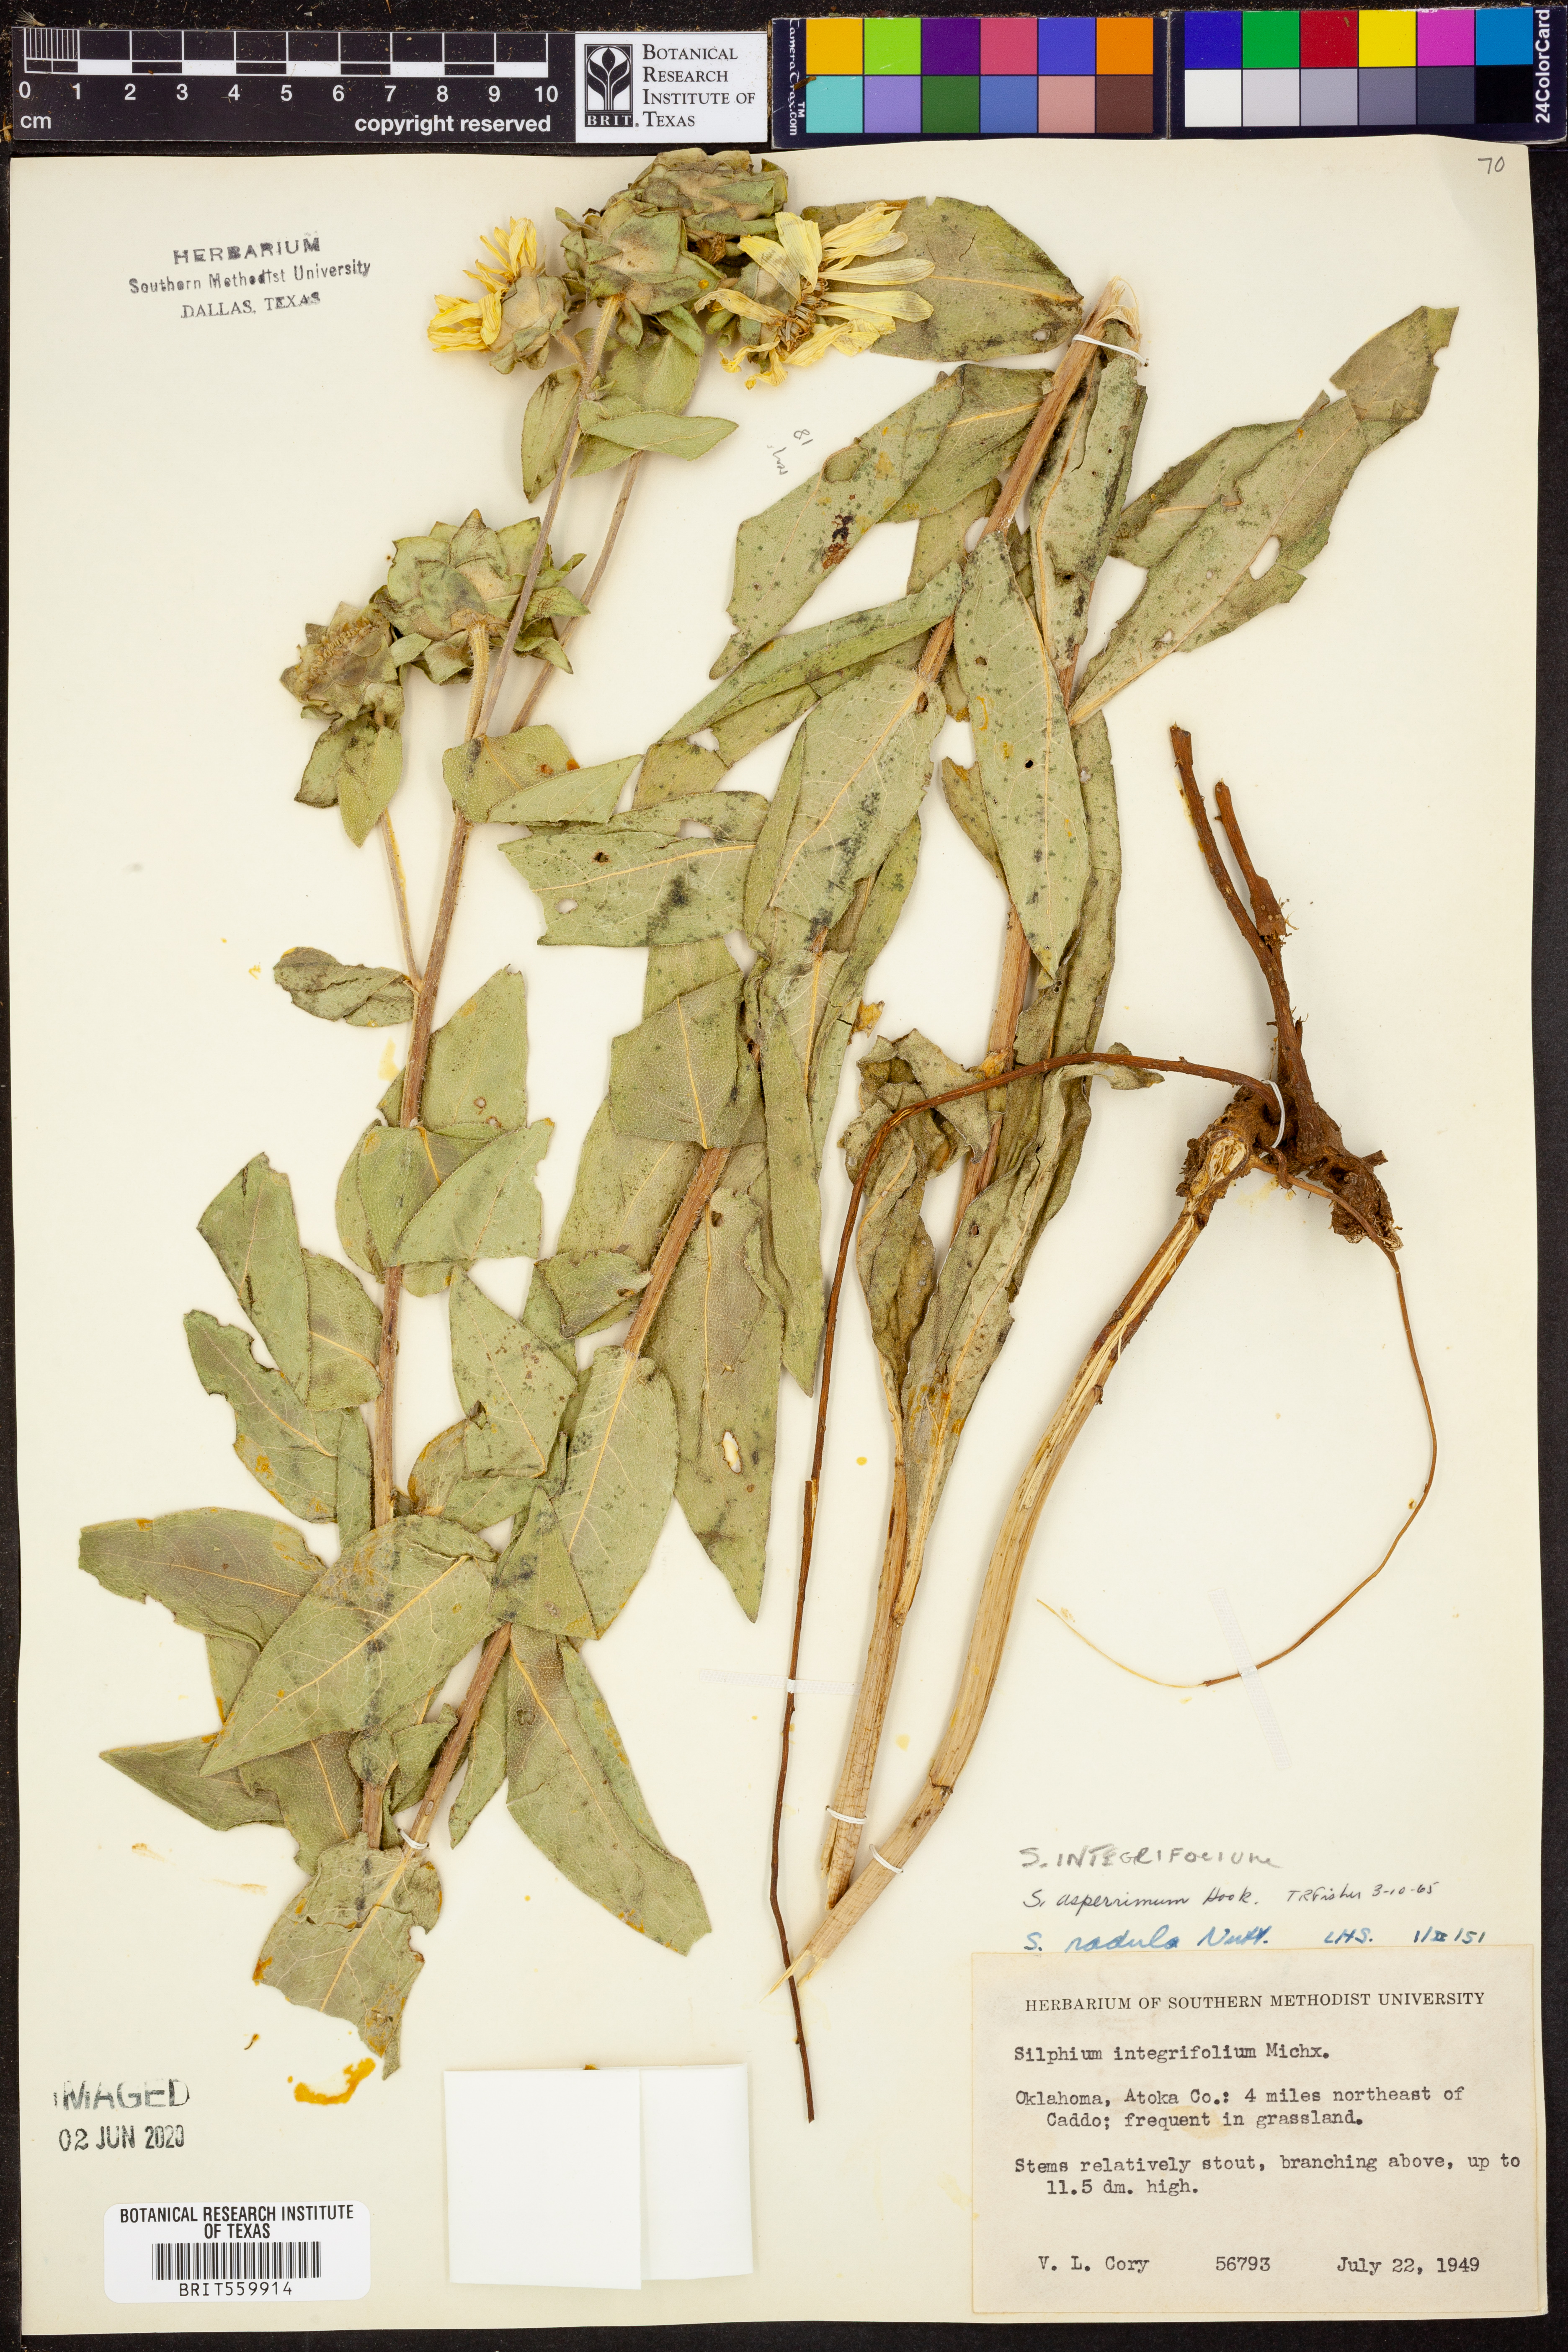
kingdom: Plantae
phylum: Tracheophyta
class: Magnoliopsida
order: Asterales
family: Asteraceae
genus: Silphium
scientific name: Silphium integrifolium
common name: Whole-leaf rosinweed
